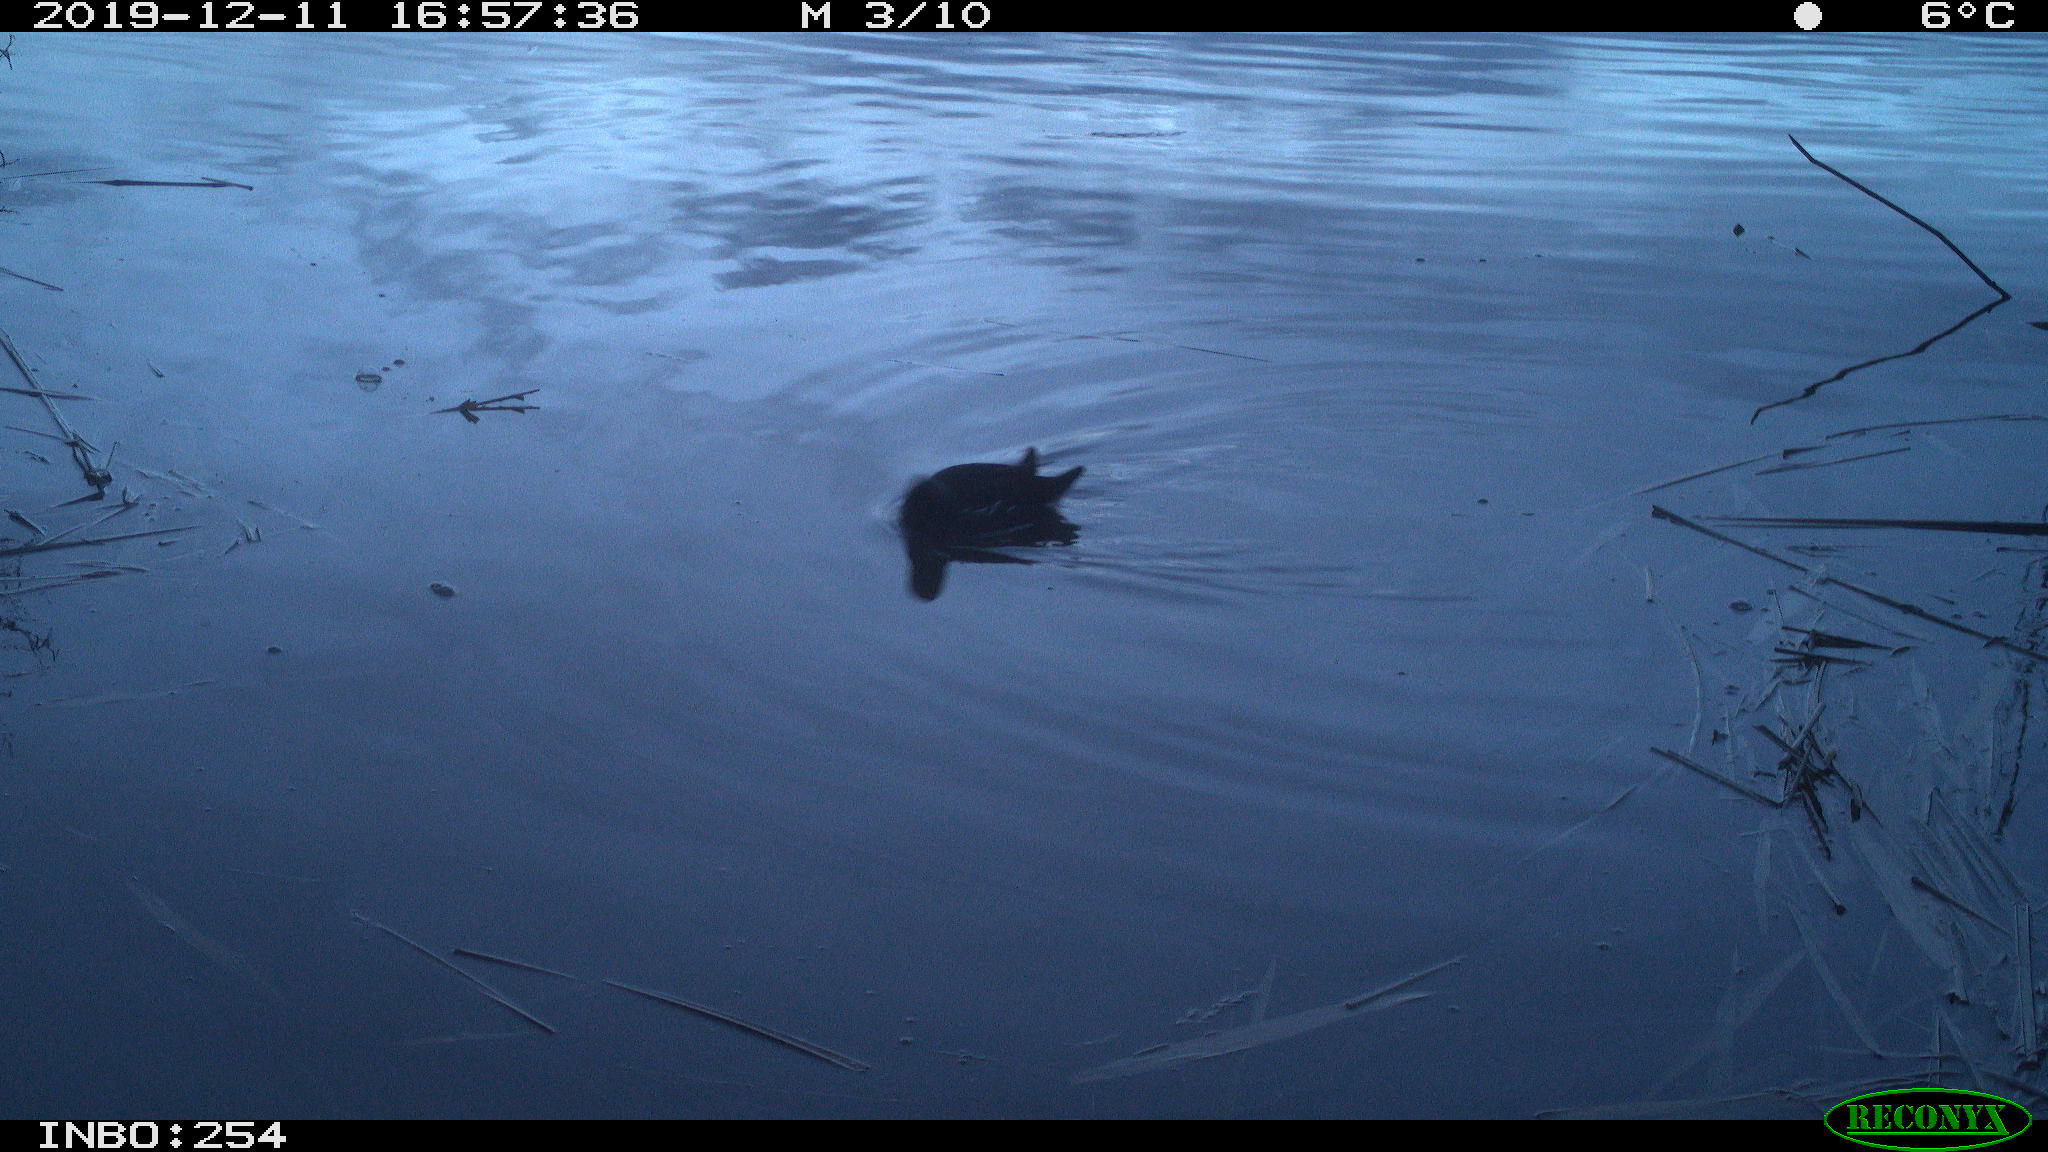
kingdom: Animalia
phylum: Chordata
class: Aves
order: Gruiformes
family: Rallidae
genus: Fulica
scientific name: Fulica atra
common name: Eurasian coot
